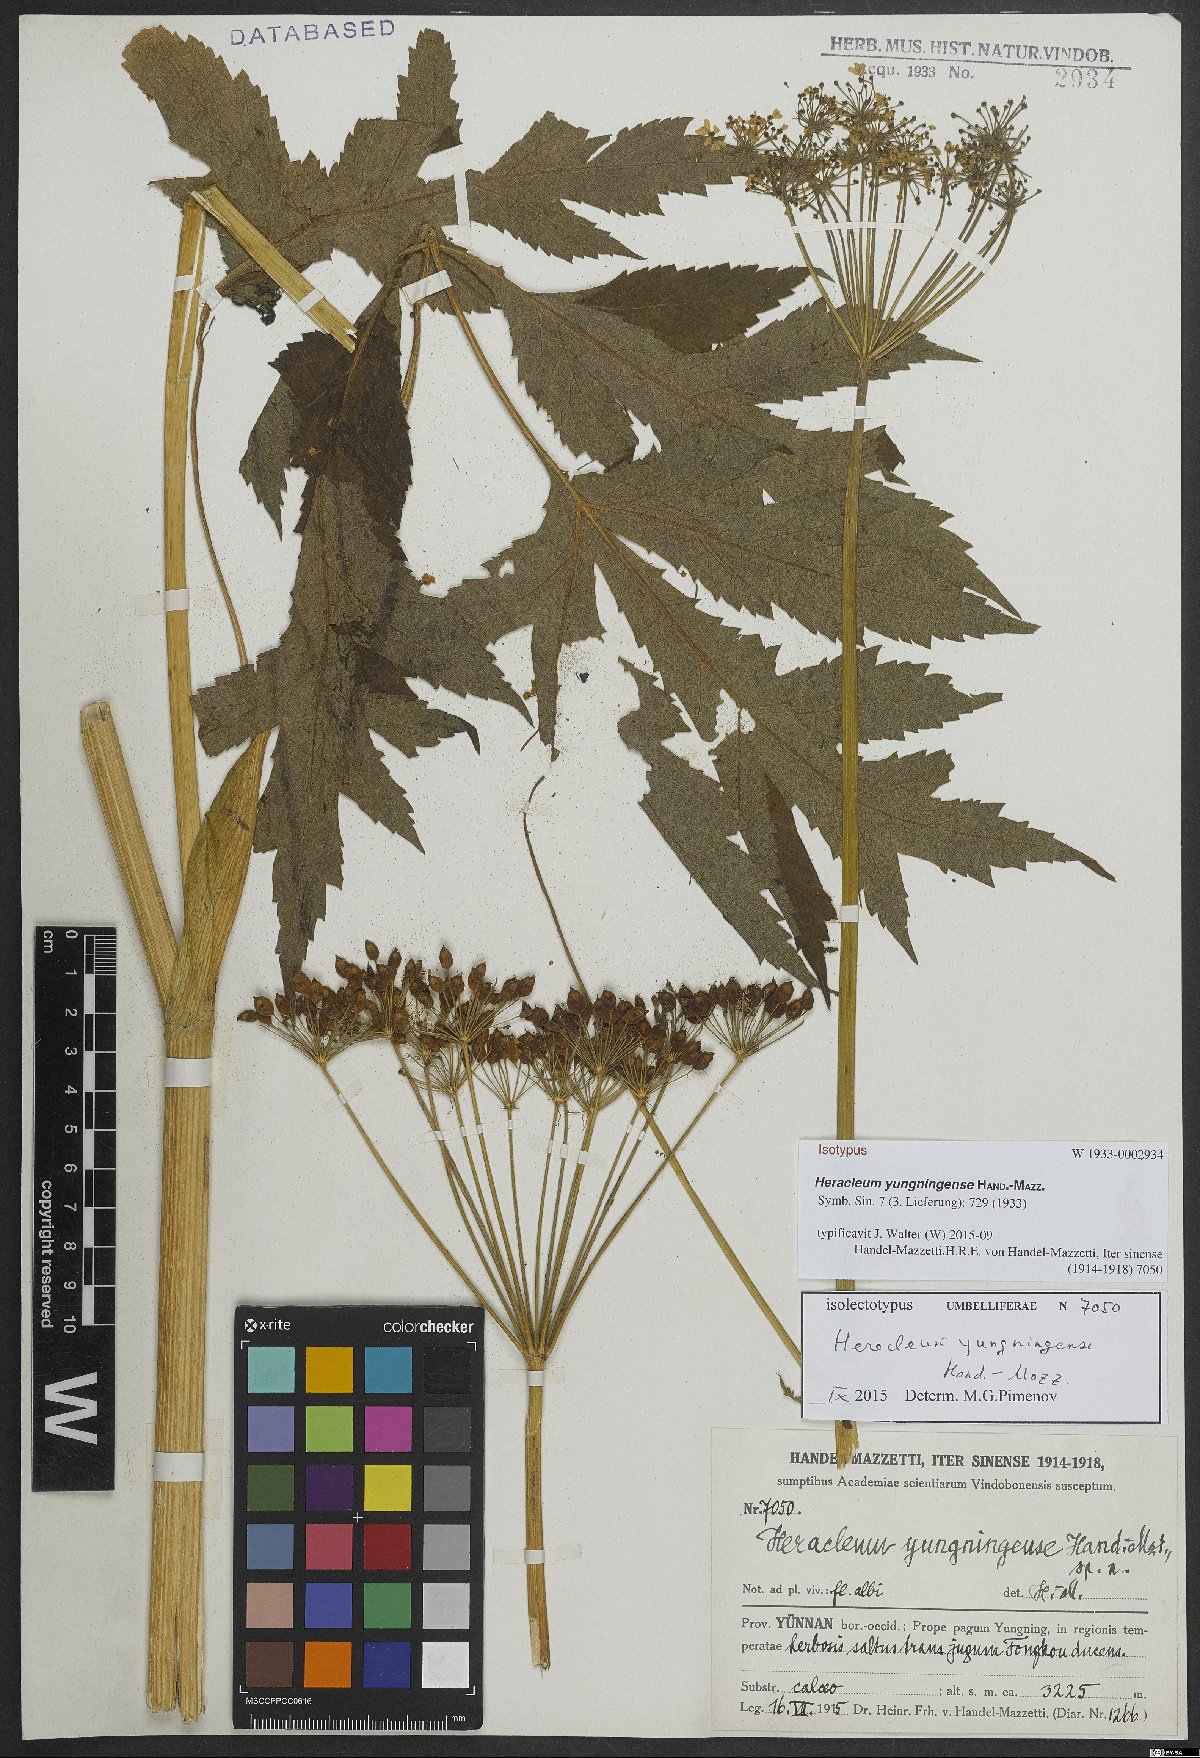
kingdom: Plantae
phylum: Tracheophyta
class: Magnoliopsida
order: Apiales
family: Apiaceae
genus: Heracleum
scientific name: Heracleum yungningense
